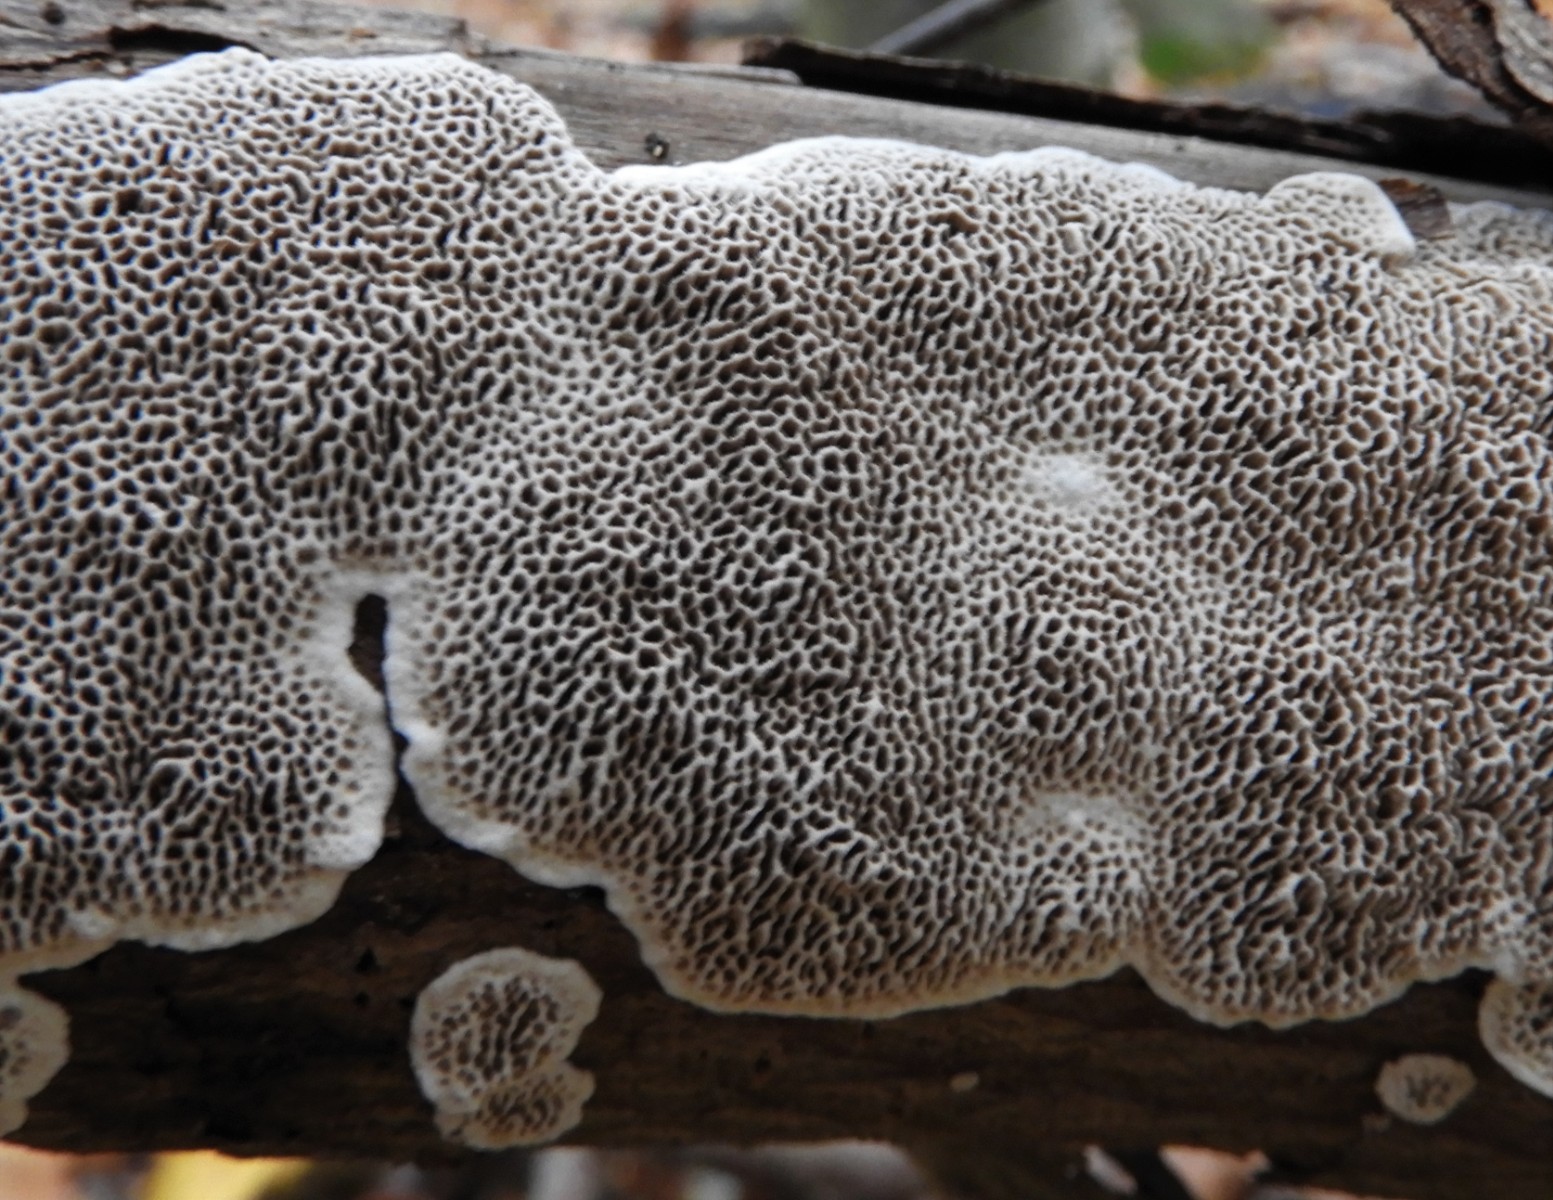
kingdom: Fungi
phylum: Basidiomycota
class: Agaricomycetes
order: Polyporales
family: Polyporaceae
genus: Podofomes
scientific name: Podofomes mollis
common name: blød begporesvamp
